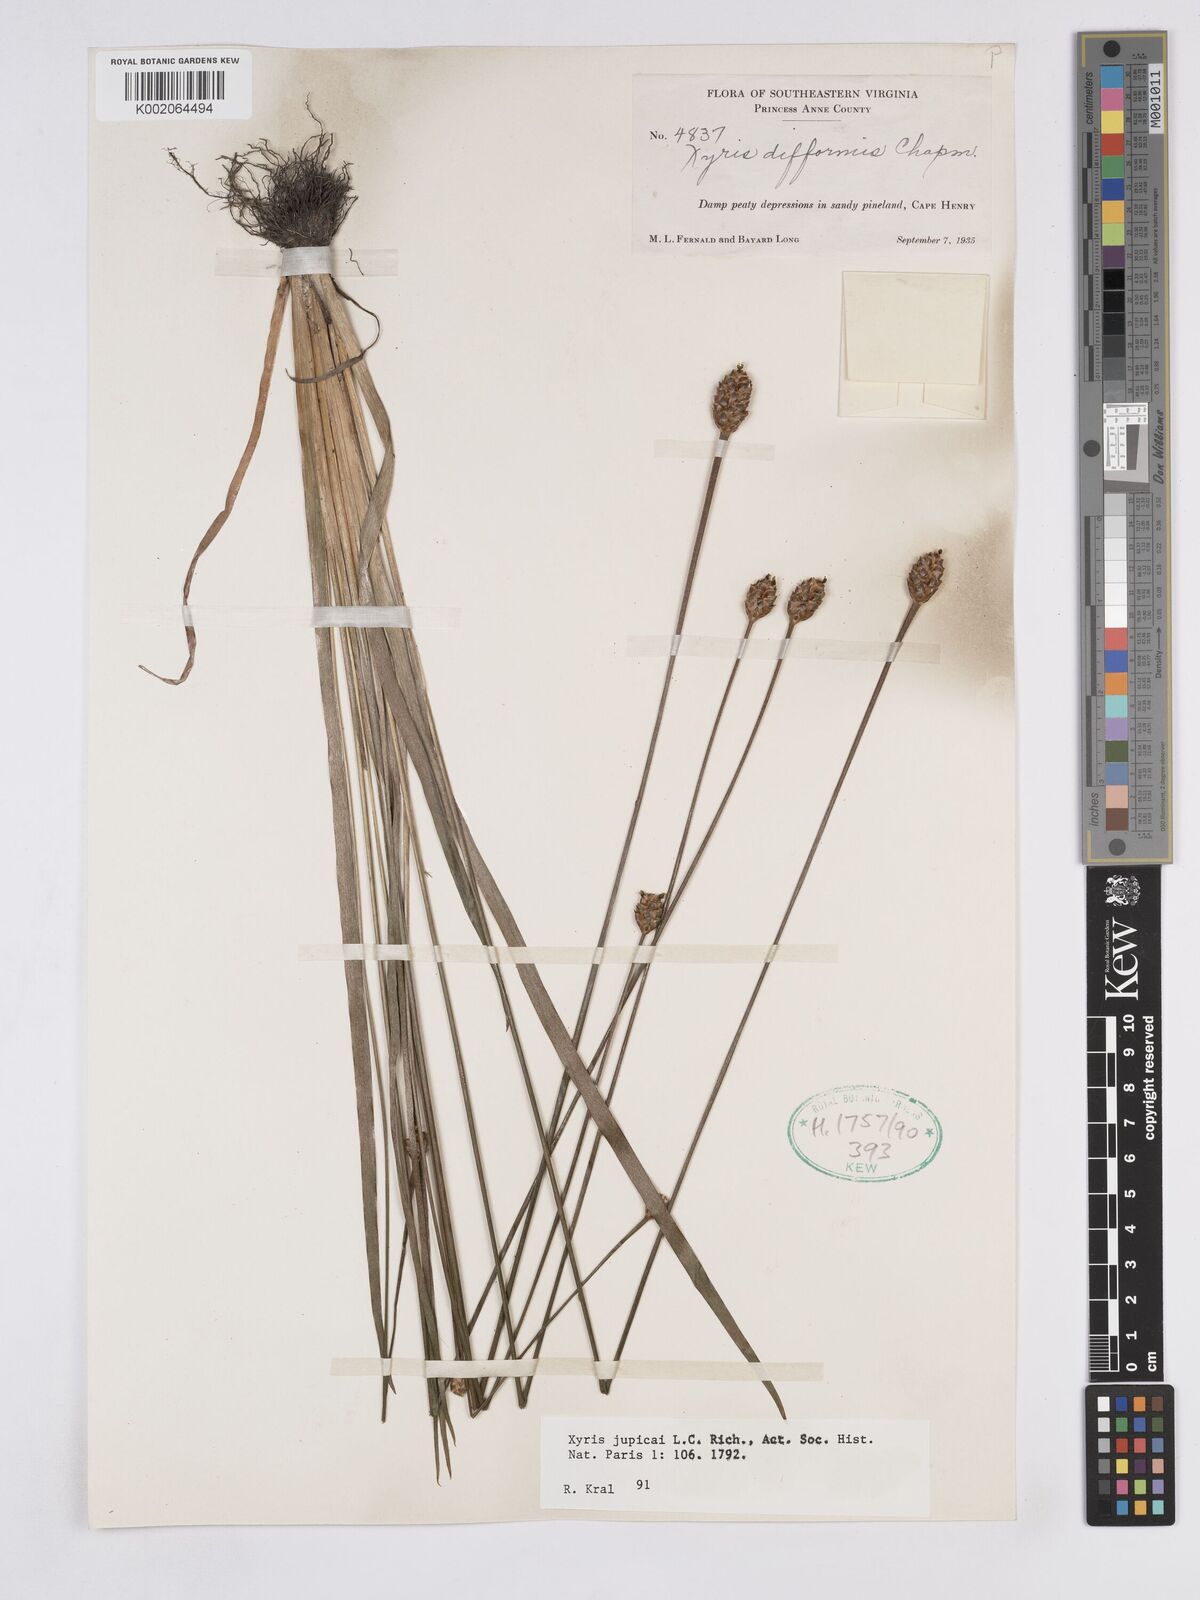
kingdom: Plantae
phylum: Tracheophyta
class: Liliopsida
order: Poales
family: Xyridaceae
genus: Xyris
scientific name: Xyris jupicai
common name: Richard's yelloweyed grass
